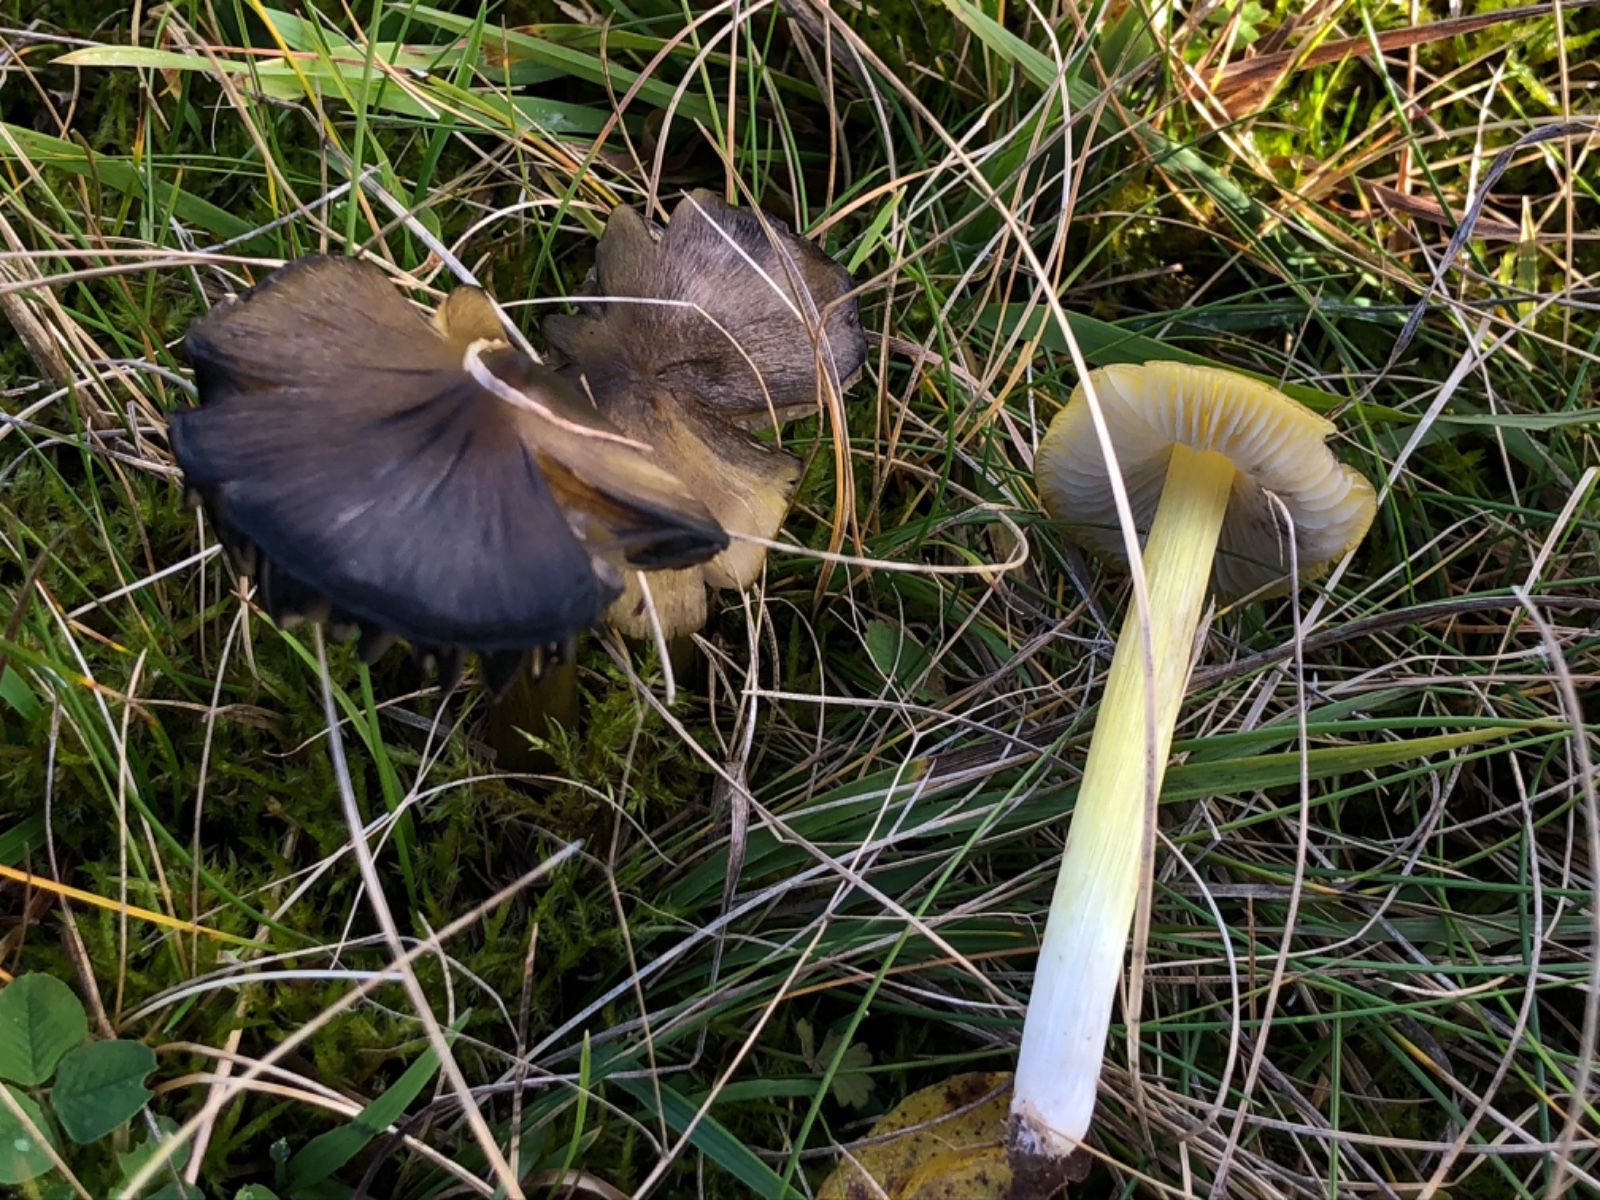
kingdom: Fungi
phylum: Basidiomycota
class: Agaricomycetes
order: Agaricales
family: Hygrophoraceae
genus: Hygrocybe
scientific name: Hygrocybe conica
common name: Blackening wax-cap
